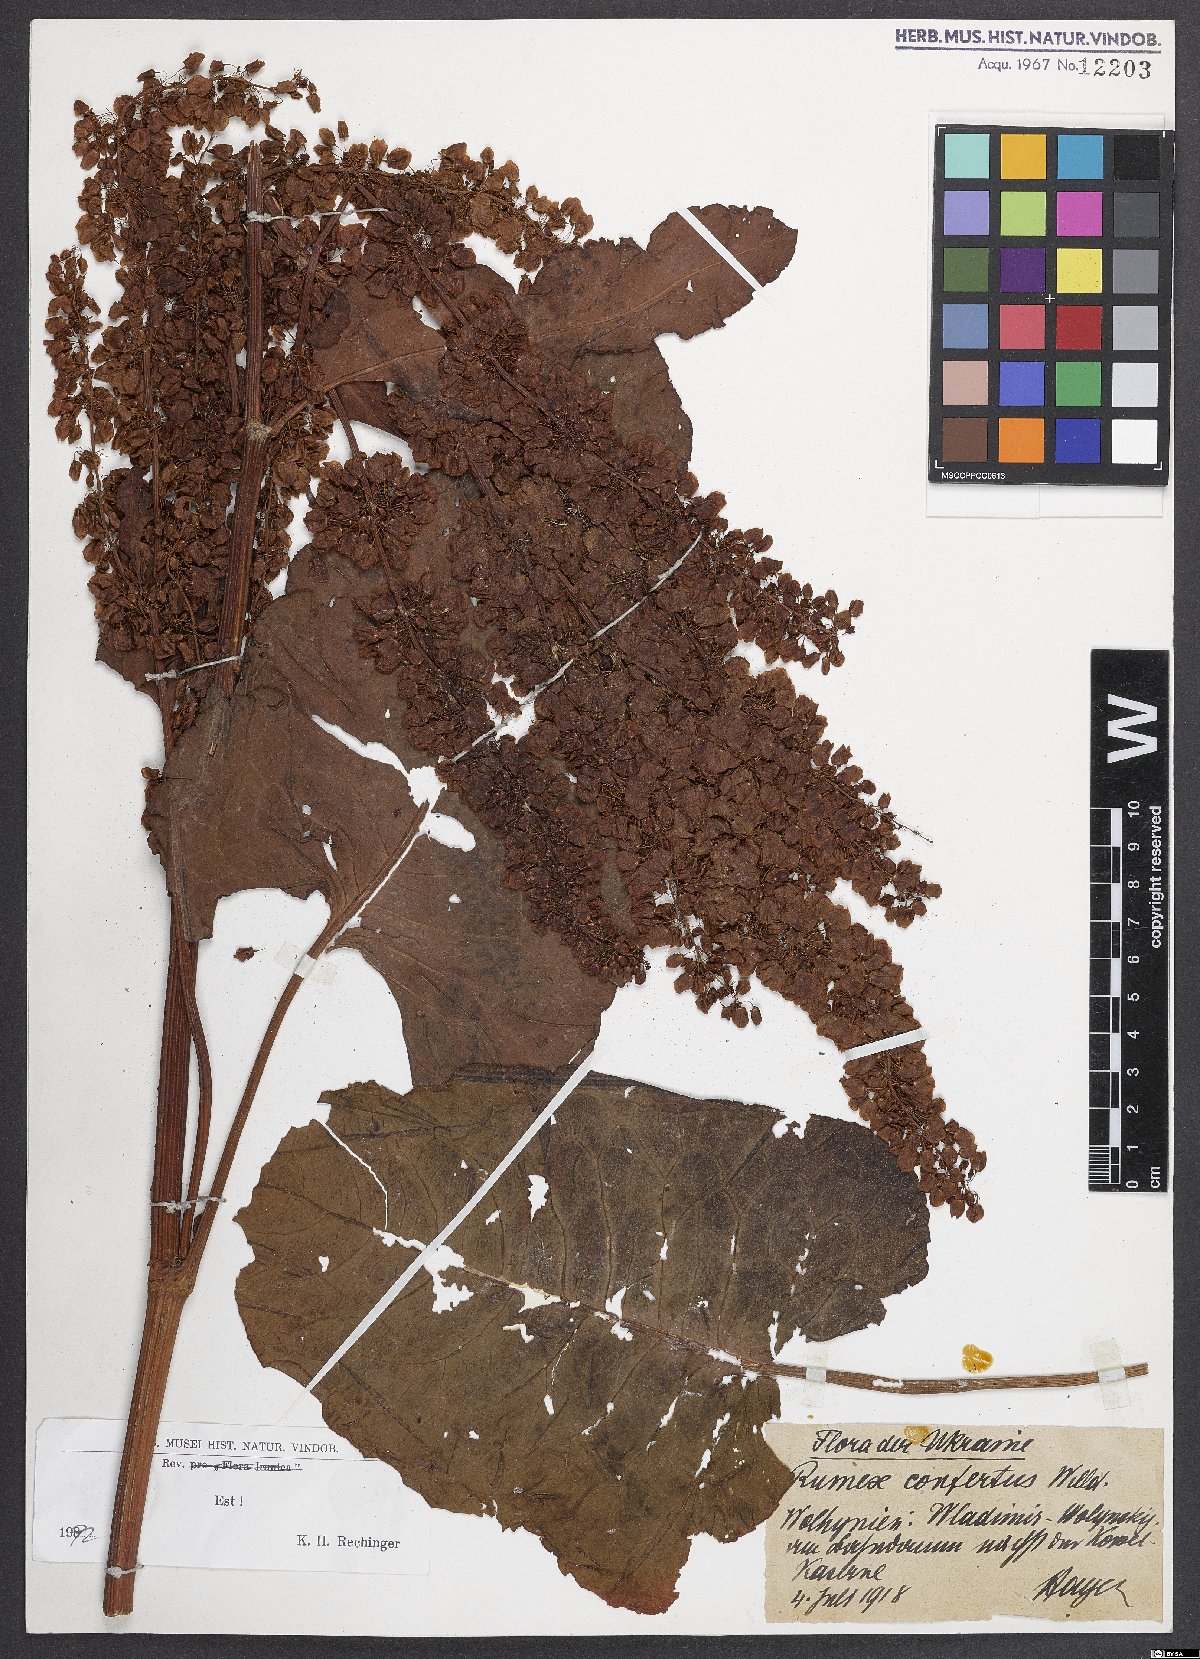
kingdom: Plantae
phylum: Tracheophyta
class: Magnoliopsida
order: Caryophyllales
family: Polygonaceae
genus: Rumex
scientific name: Rumex confertus
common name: Russian dock
